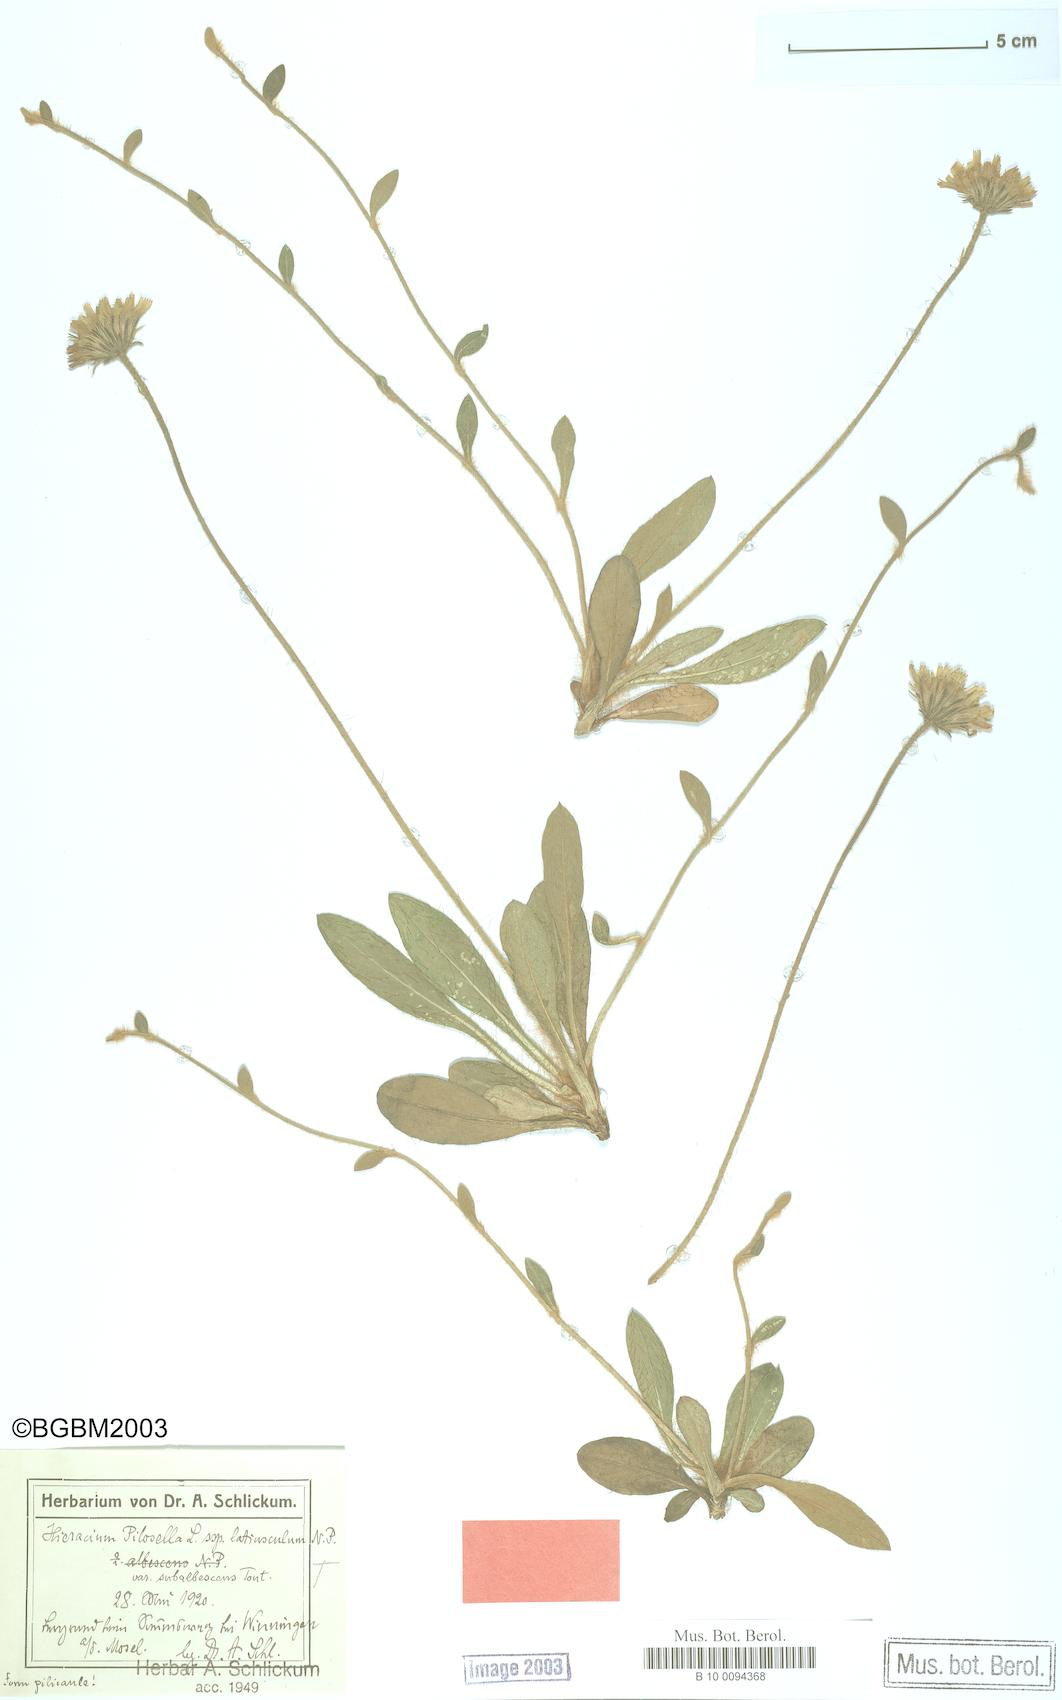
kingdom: Plantae
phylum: Tracheophyta
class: Magnoliopsida
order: Asterales
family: Asteraceae
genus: Pilosella
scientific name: Pilosella officinarum
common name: Mouse-ear hawkweed
